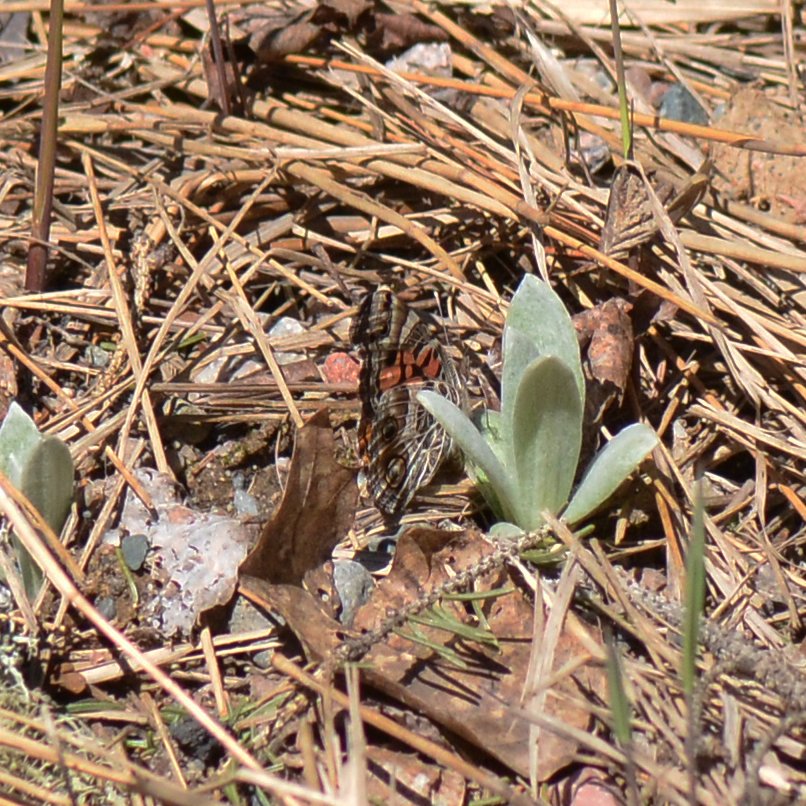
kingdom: Animalia
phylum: Arthropoda
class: Insecta
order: Lepidoptera
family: Nymphalidae
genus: Vanessa
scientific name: Vanessa virginiensis
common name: American Lady
